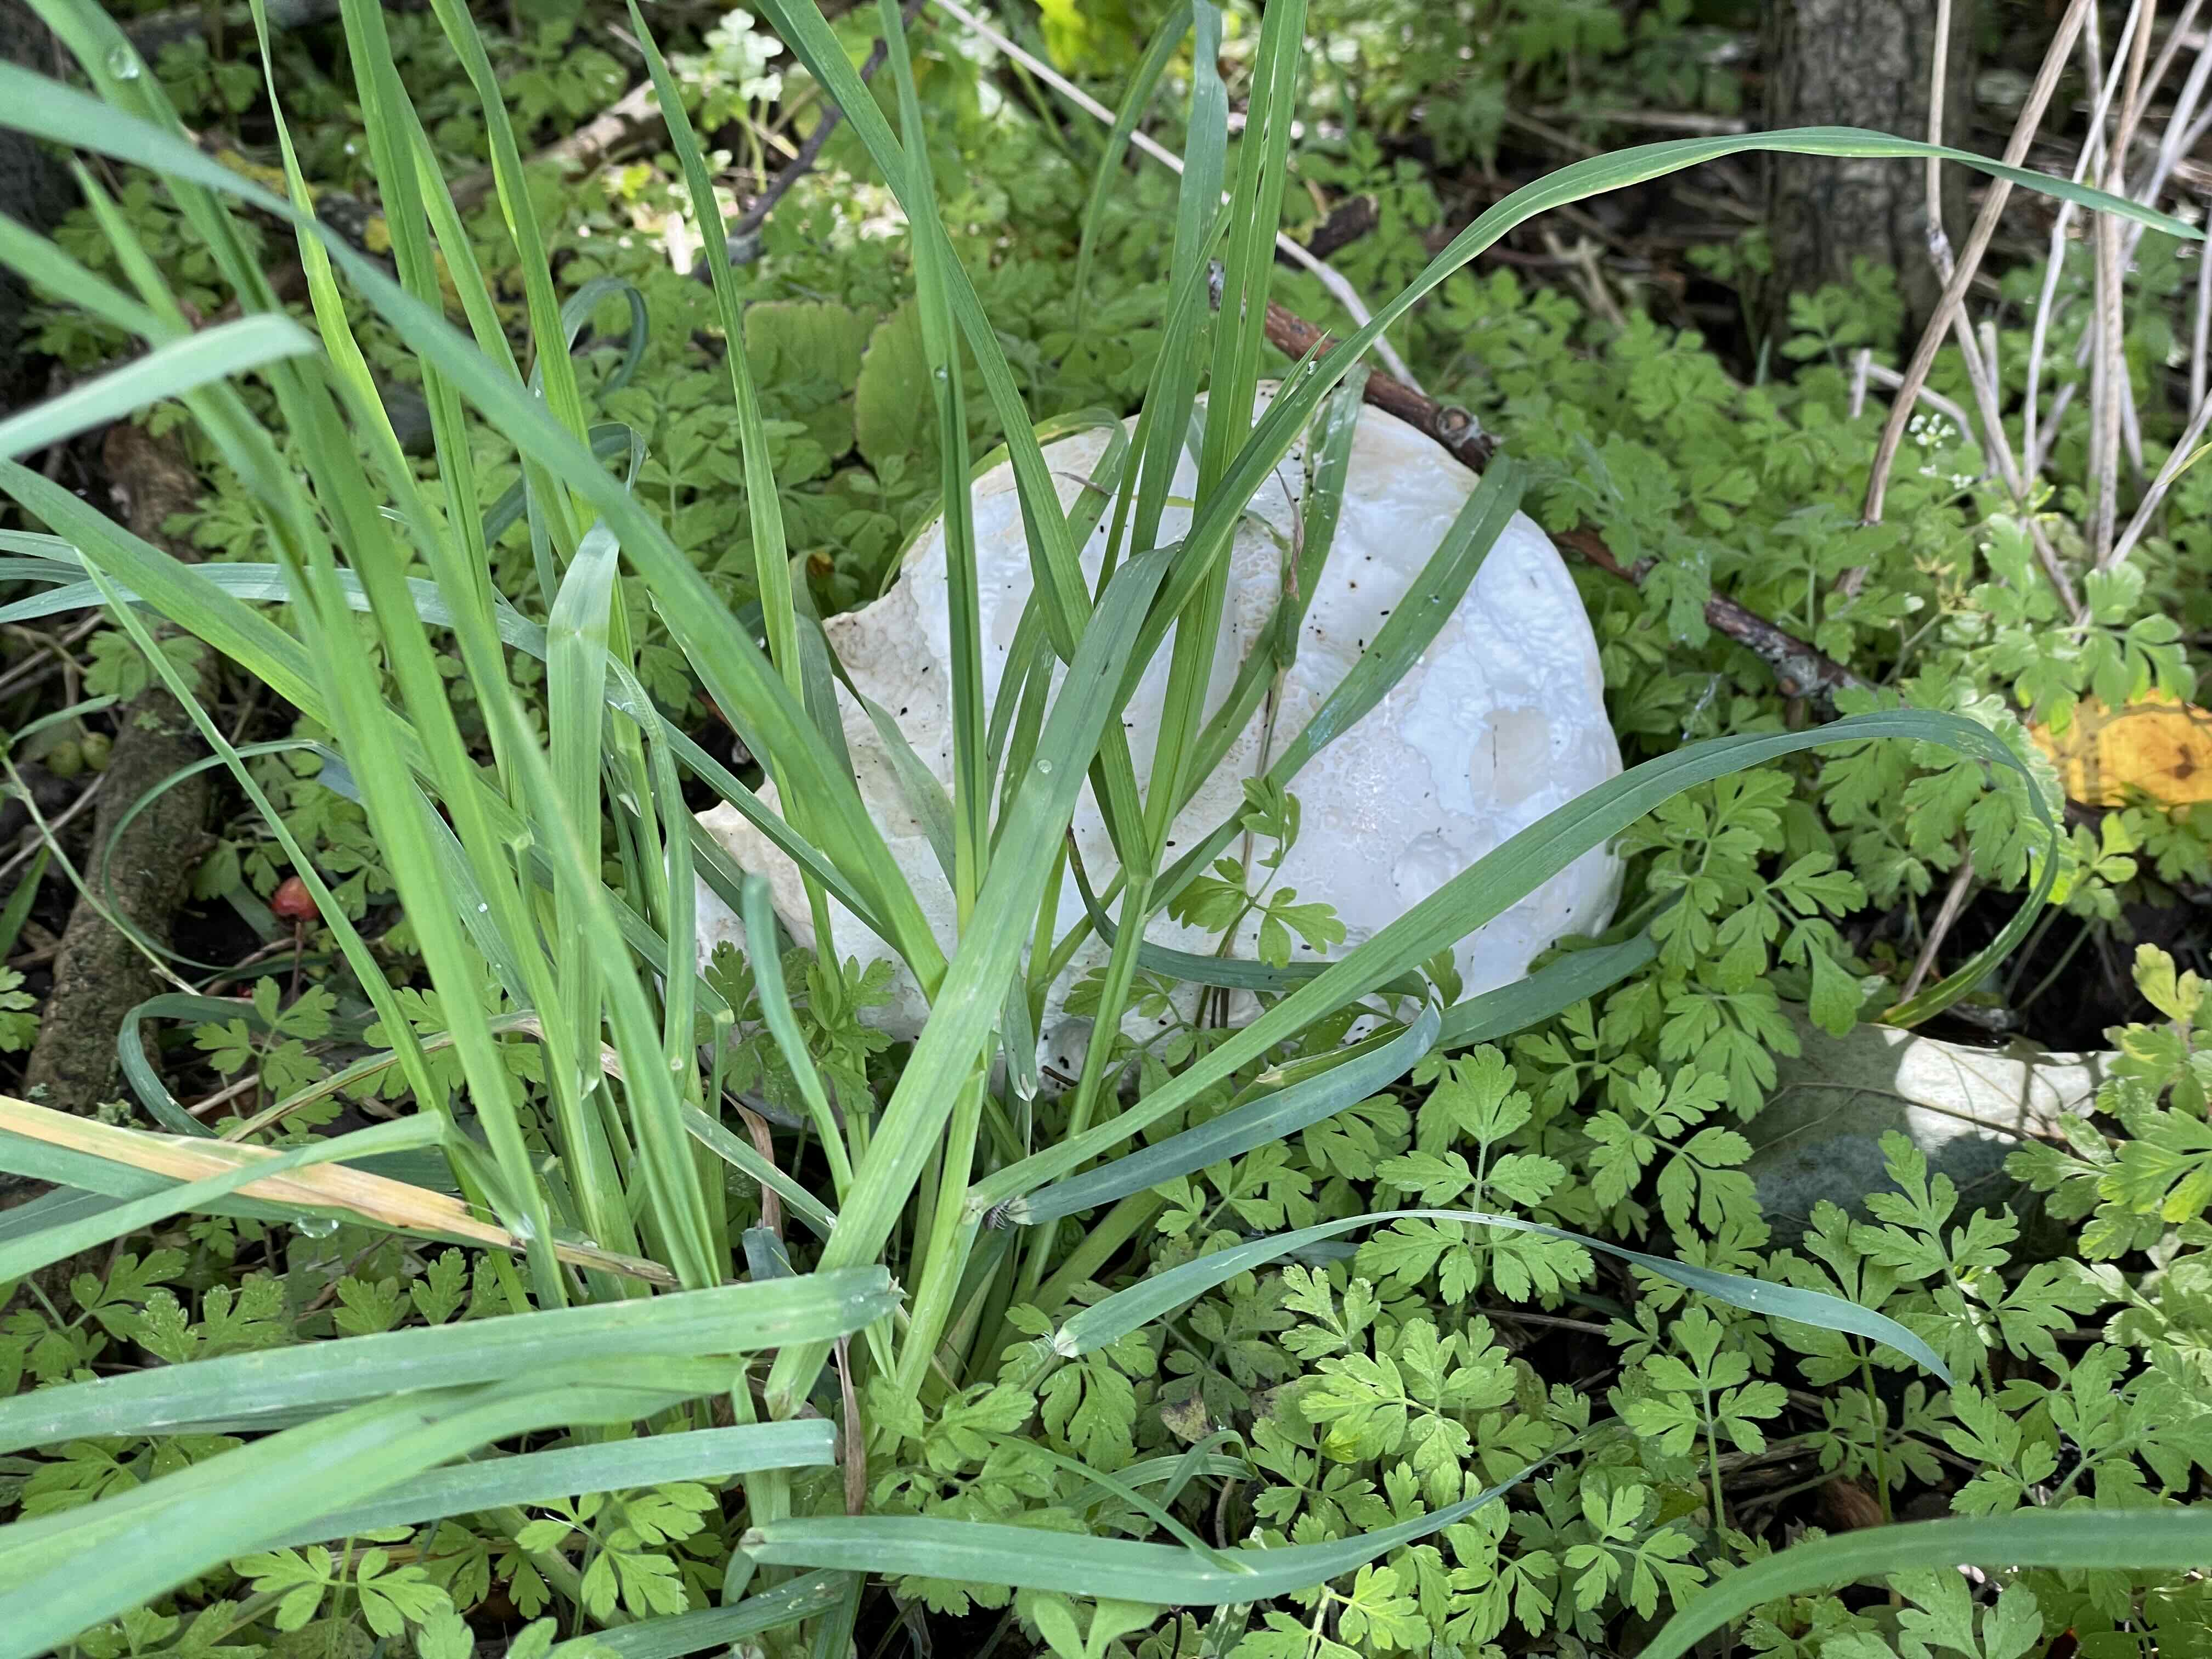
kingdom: Fungi
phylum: Basidiomycota
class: Agaricomycetes
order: Agaricales
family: Lycoperdaceae
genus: Calvatia
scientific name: Calvatia gigantea
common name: kæmpestøvbold
